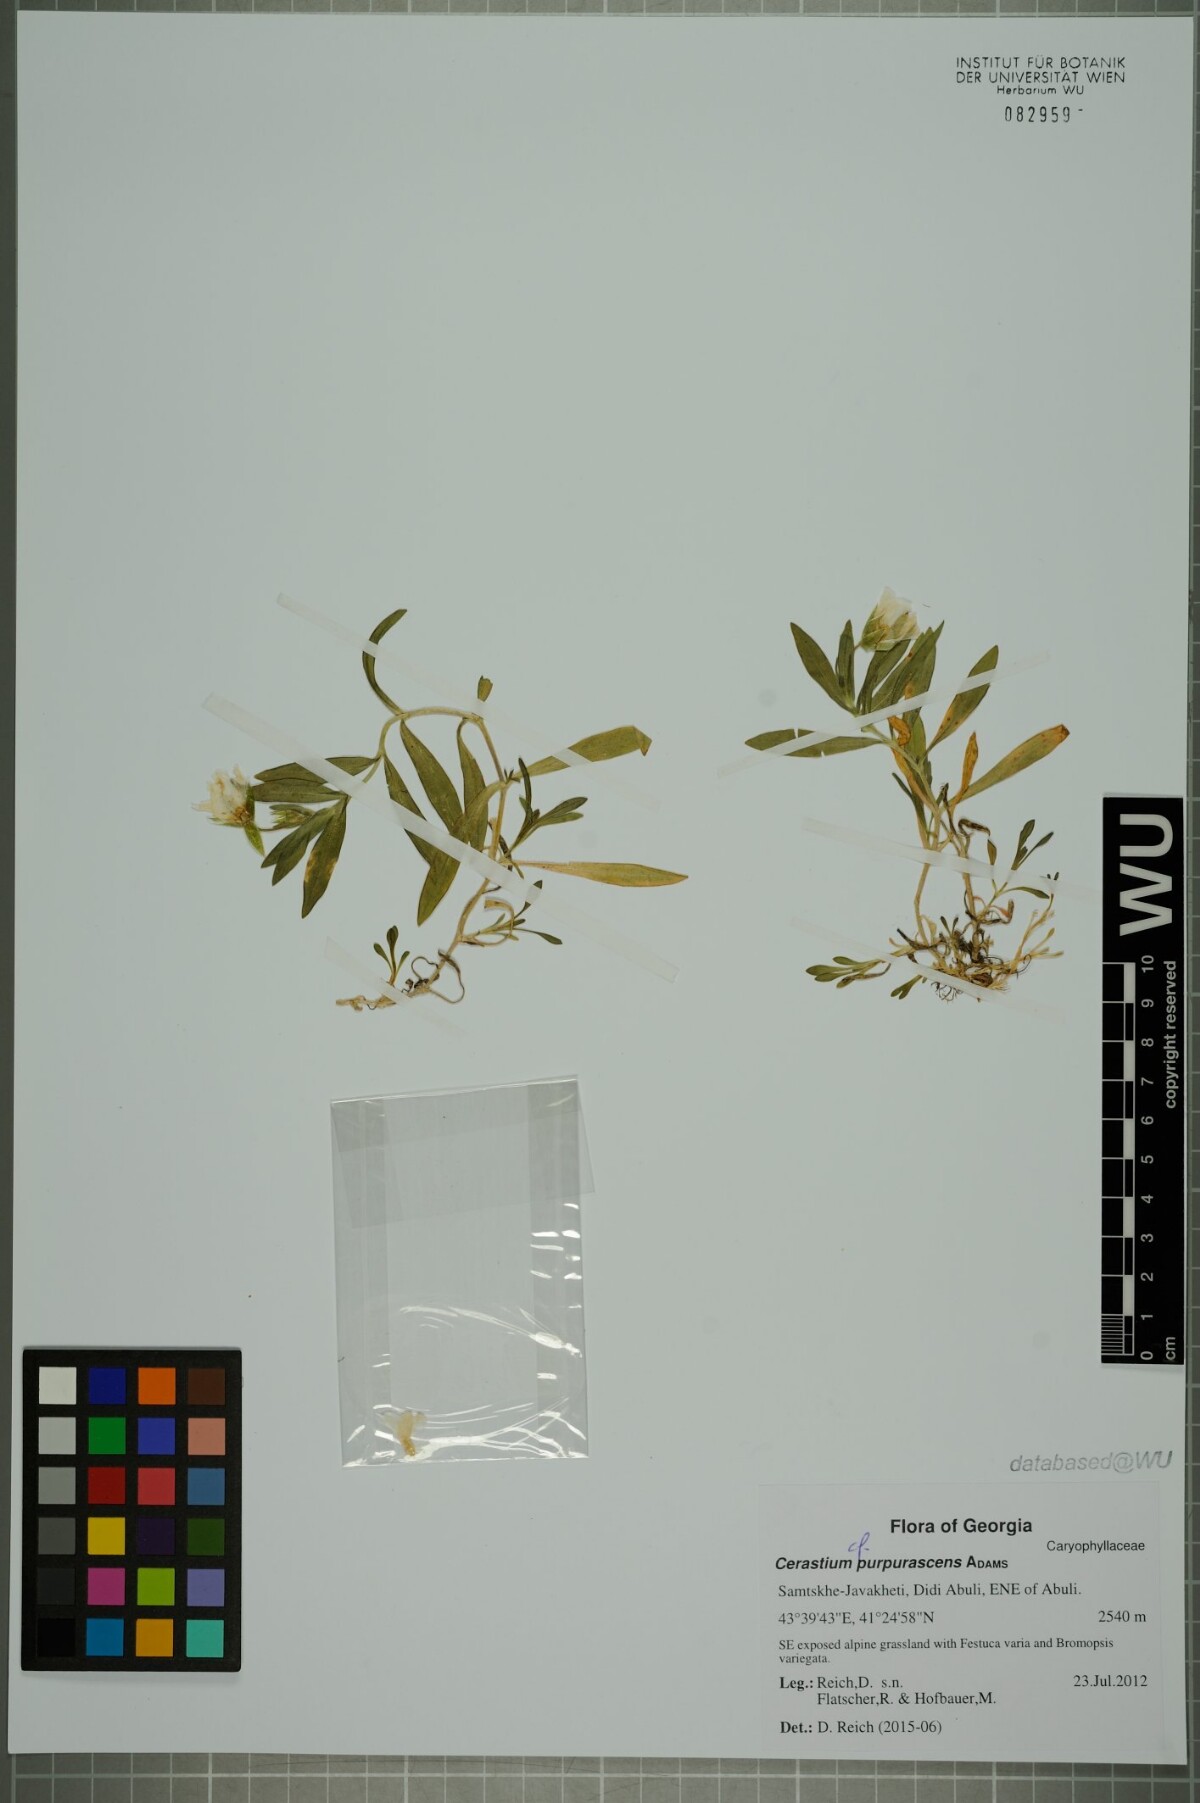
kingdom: Plantae
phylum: Tracheophyta
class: Magnoliopsida
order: Caryophyllales
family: Caryophyllaceae
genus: Cerastium
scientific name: Cerastium purpurascens
